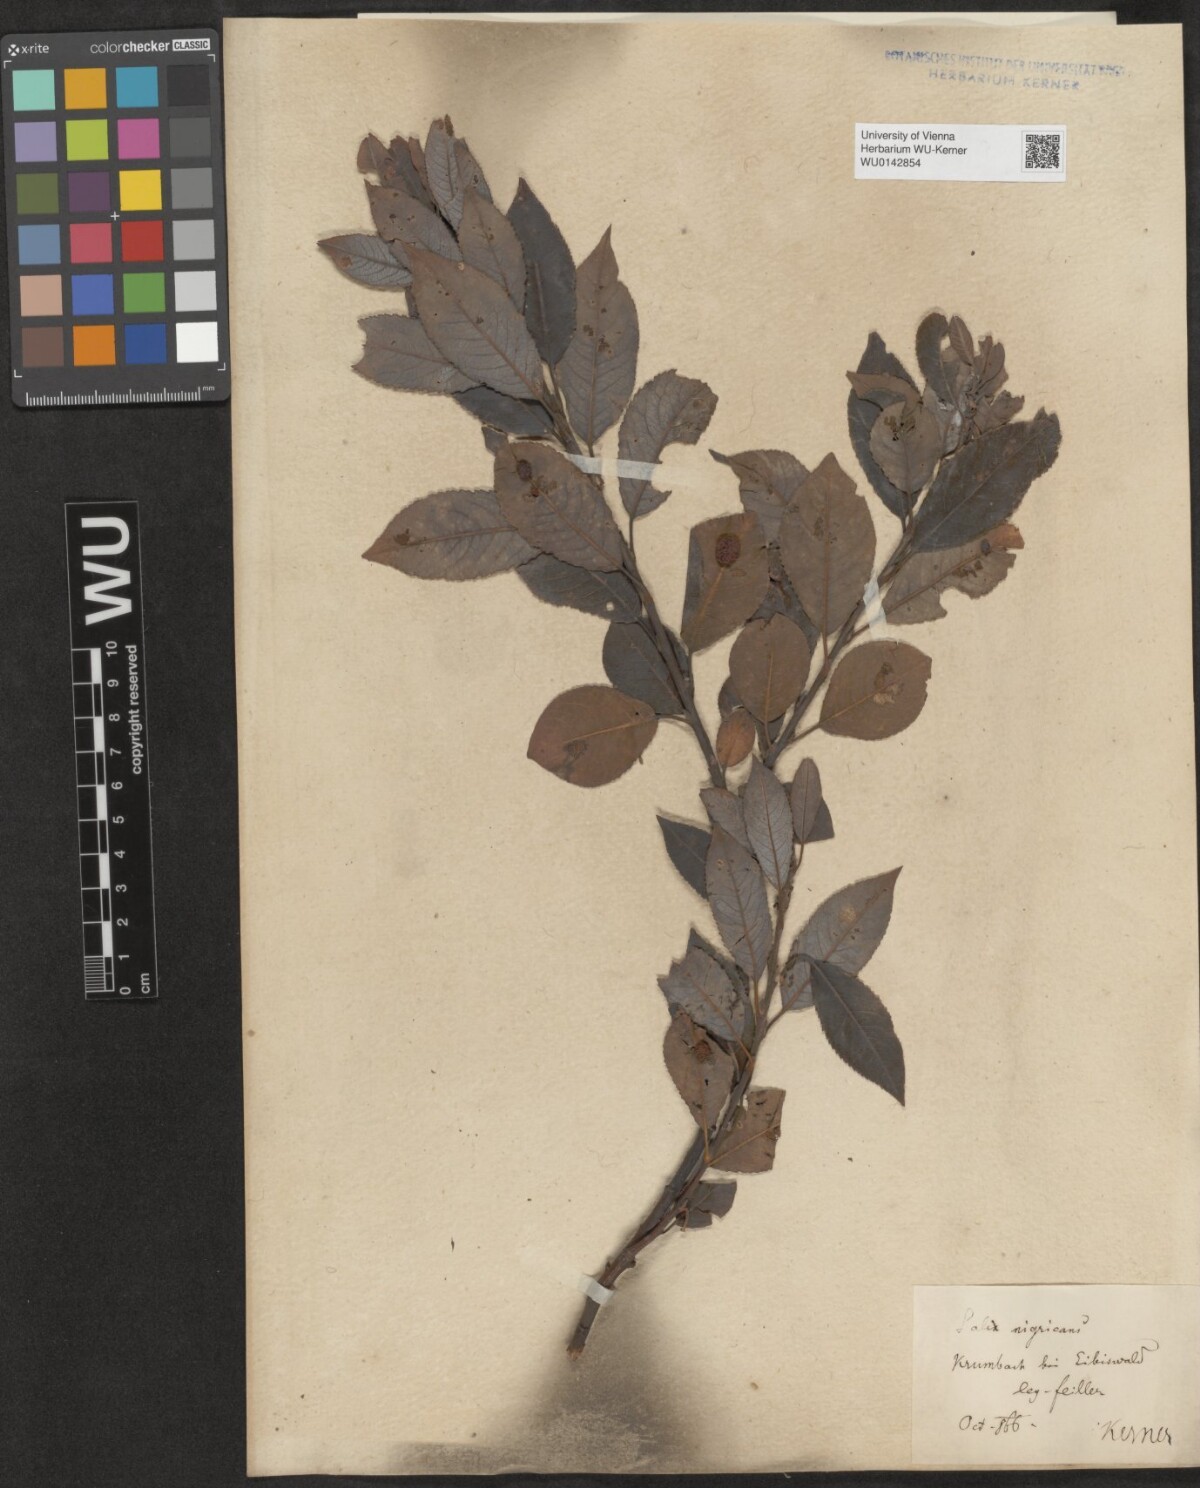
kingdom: Plantae
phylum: Tracheophyta
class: Magnoliopsida
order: Malpighiales
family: Salicaceae
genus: Salix
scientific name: Salix myrsinifolia
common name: Dark-leaved willow
